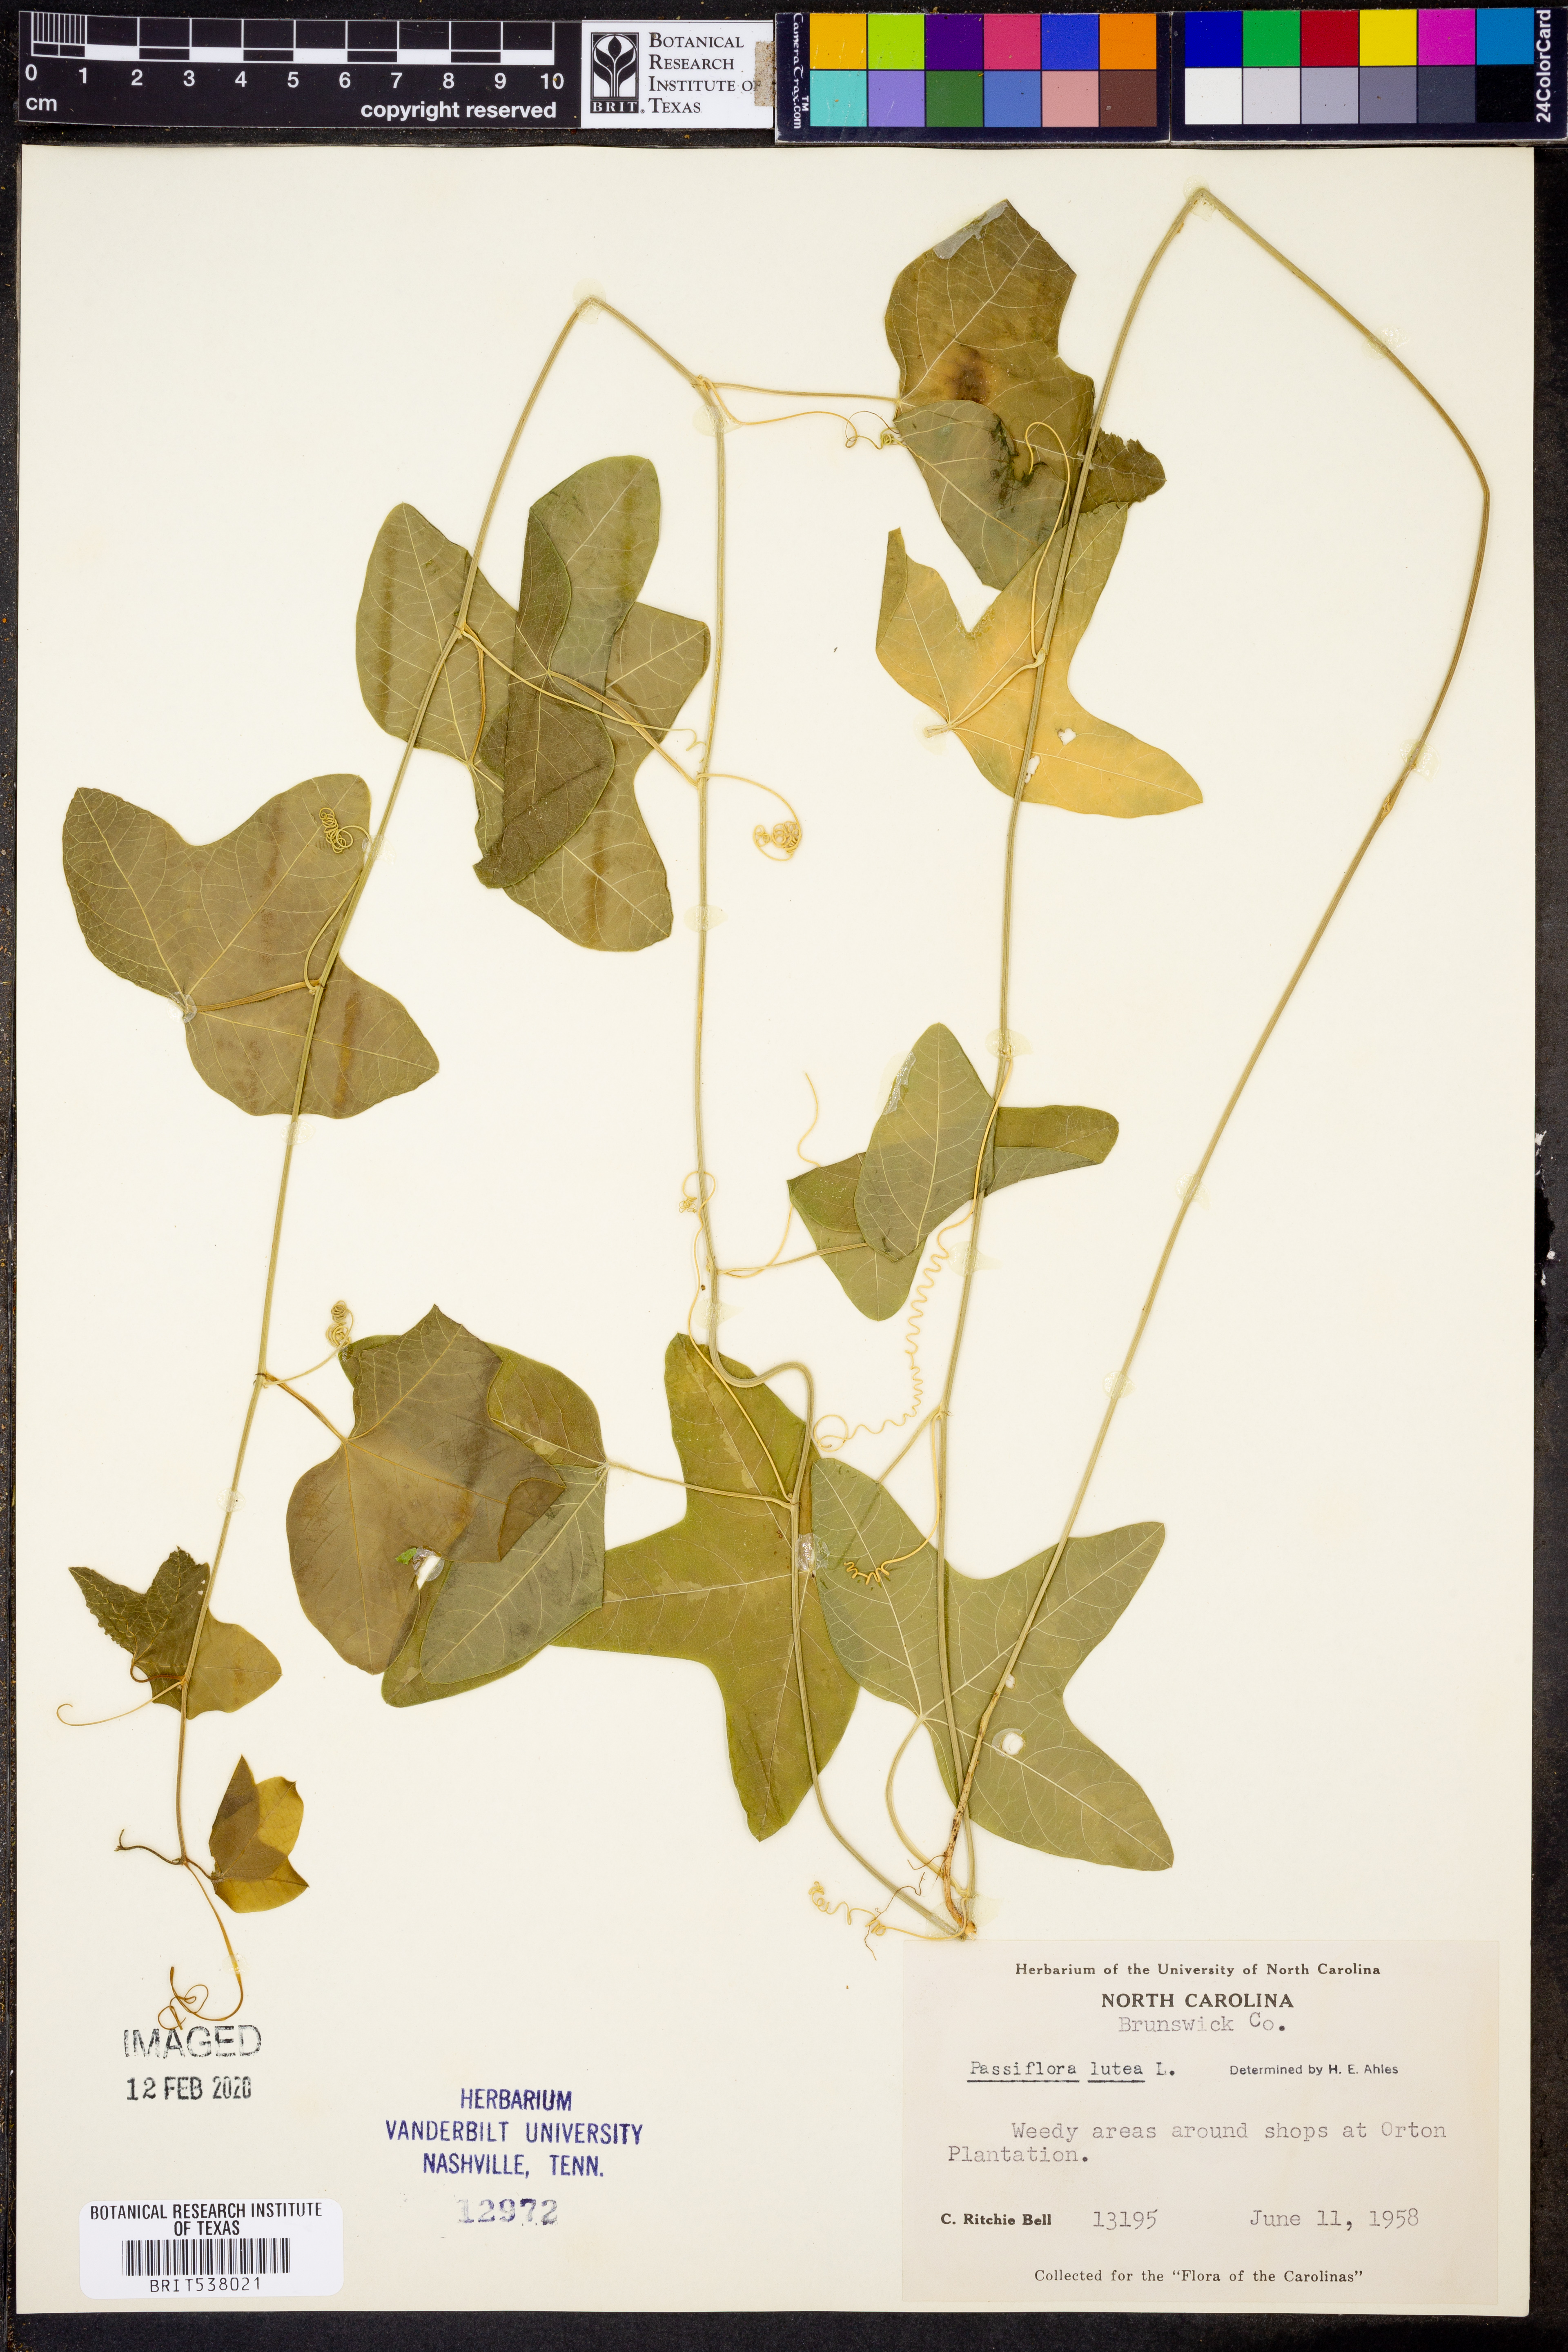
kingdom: Plantae
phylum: Tracheophyta
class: Magnoliopsida
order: Malpighiales
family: Passifloraceae
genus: Passiflora
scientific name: Passiflora lutea
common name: Yellow passionflower
